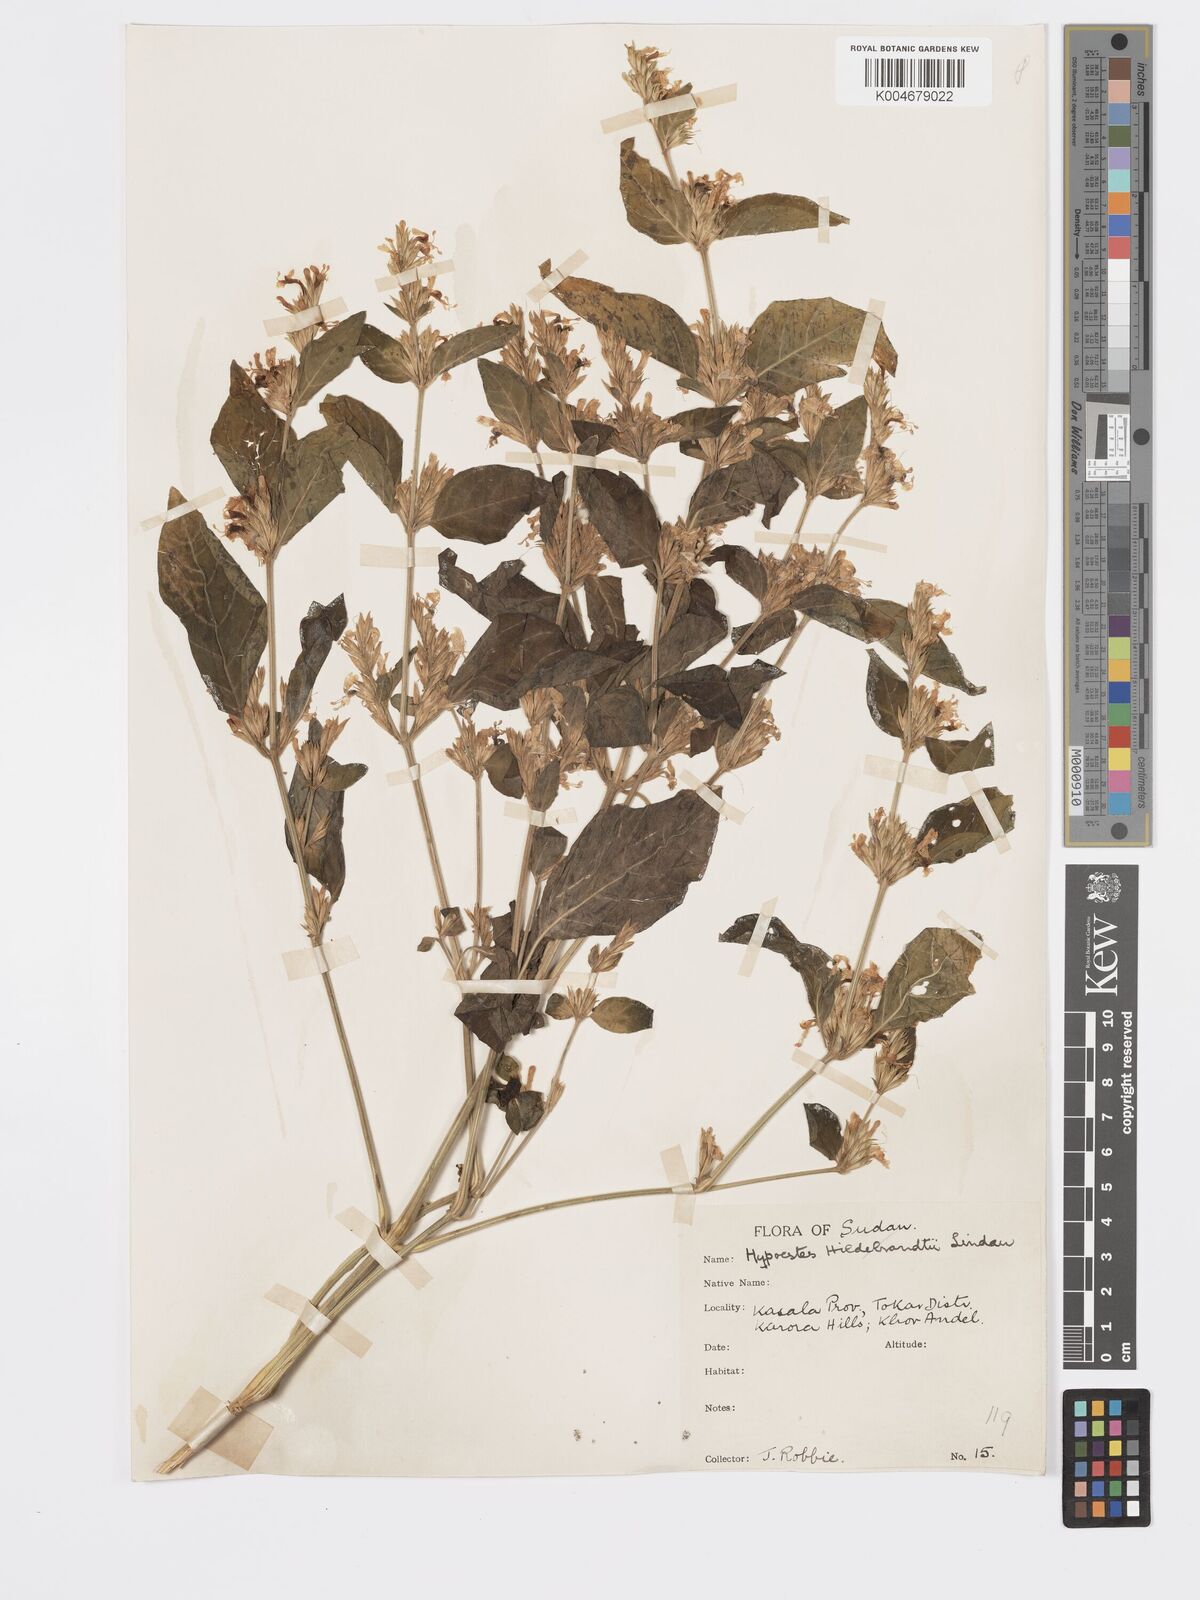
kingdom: Plantae
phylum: Tracheophyta
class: Magnoliopsida
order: Lamiales
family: Acanthaceae
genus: Hypoestes
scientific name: Hypoestes forskaolii
